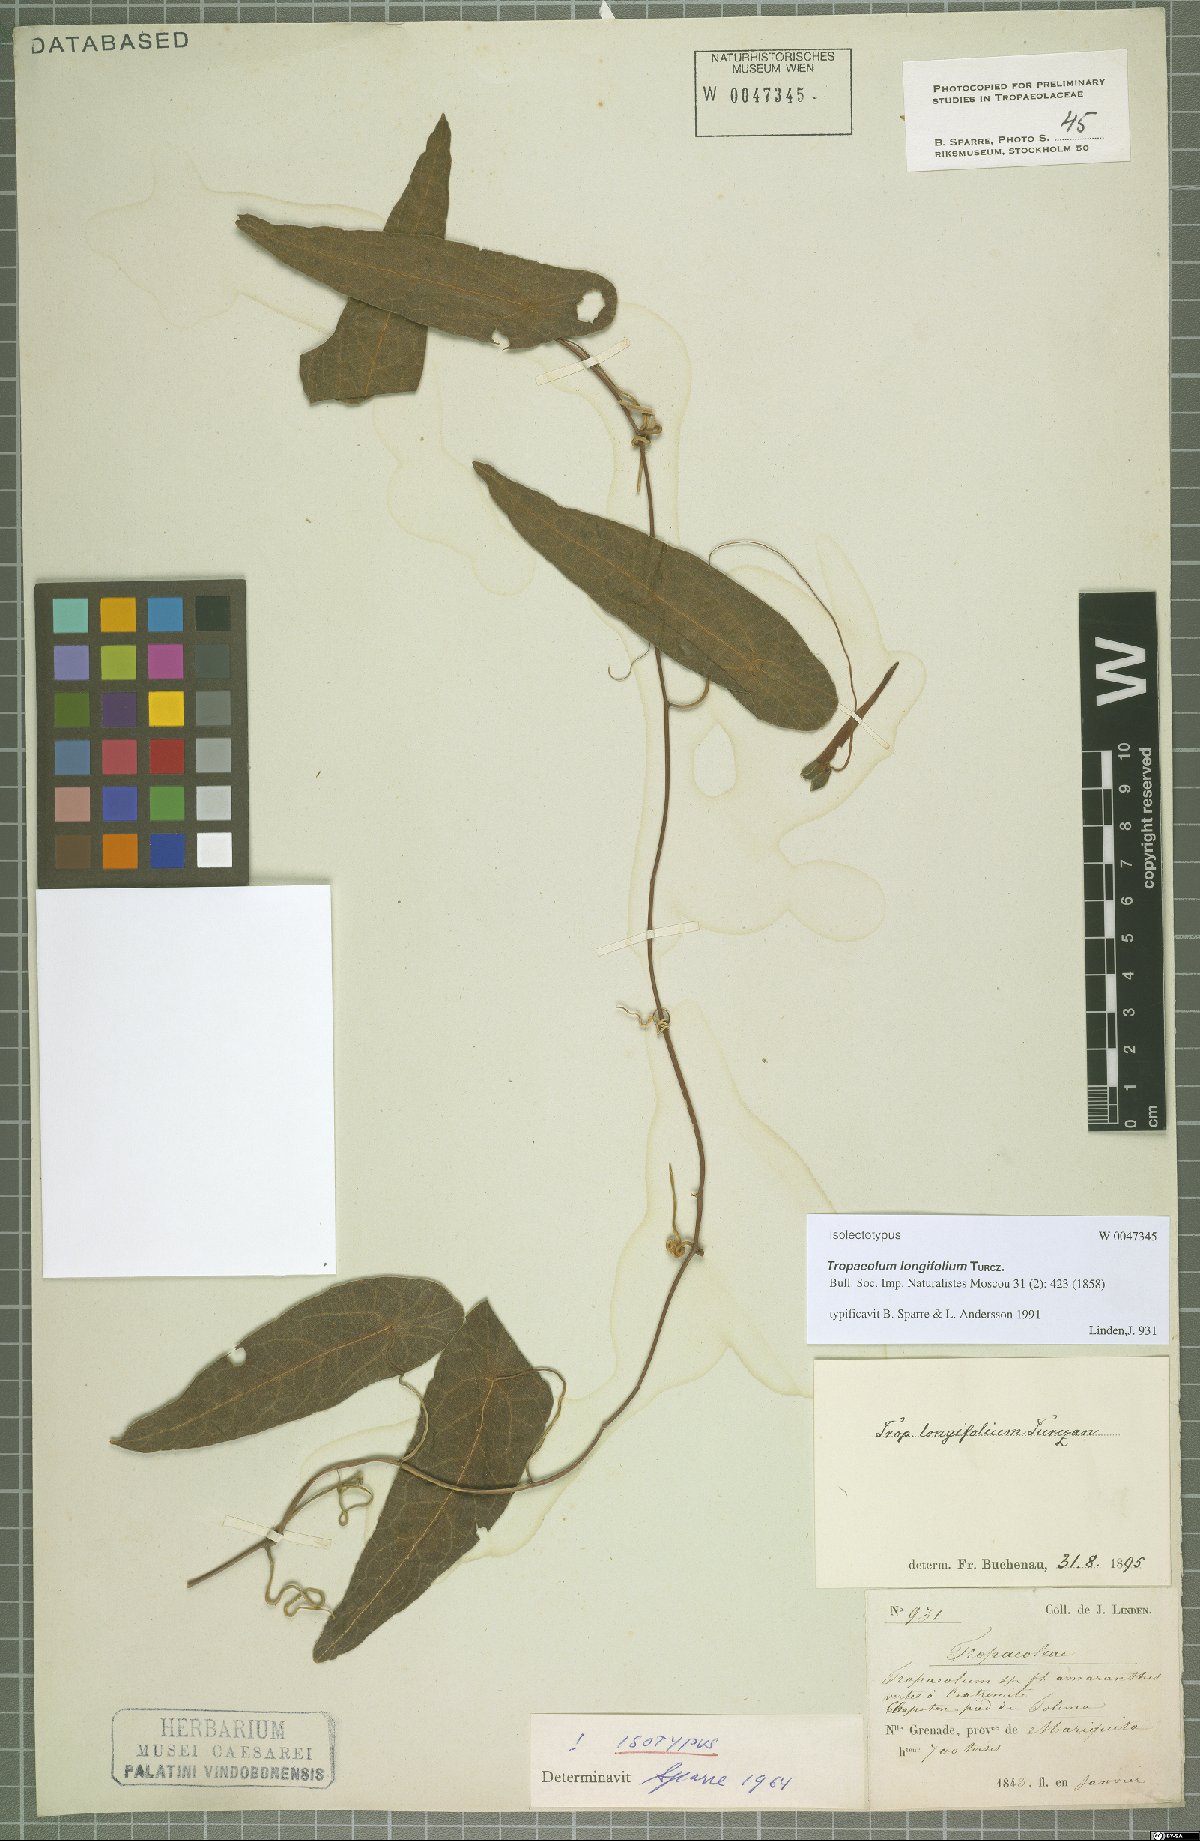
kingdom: Plantae
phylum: Tracheophyta
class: Magnoliopsida
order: Brassicales
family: Tropaeolaceae
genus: Tropaeolum
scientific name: Tropaeolum longifolium
